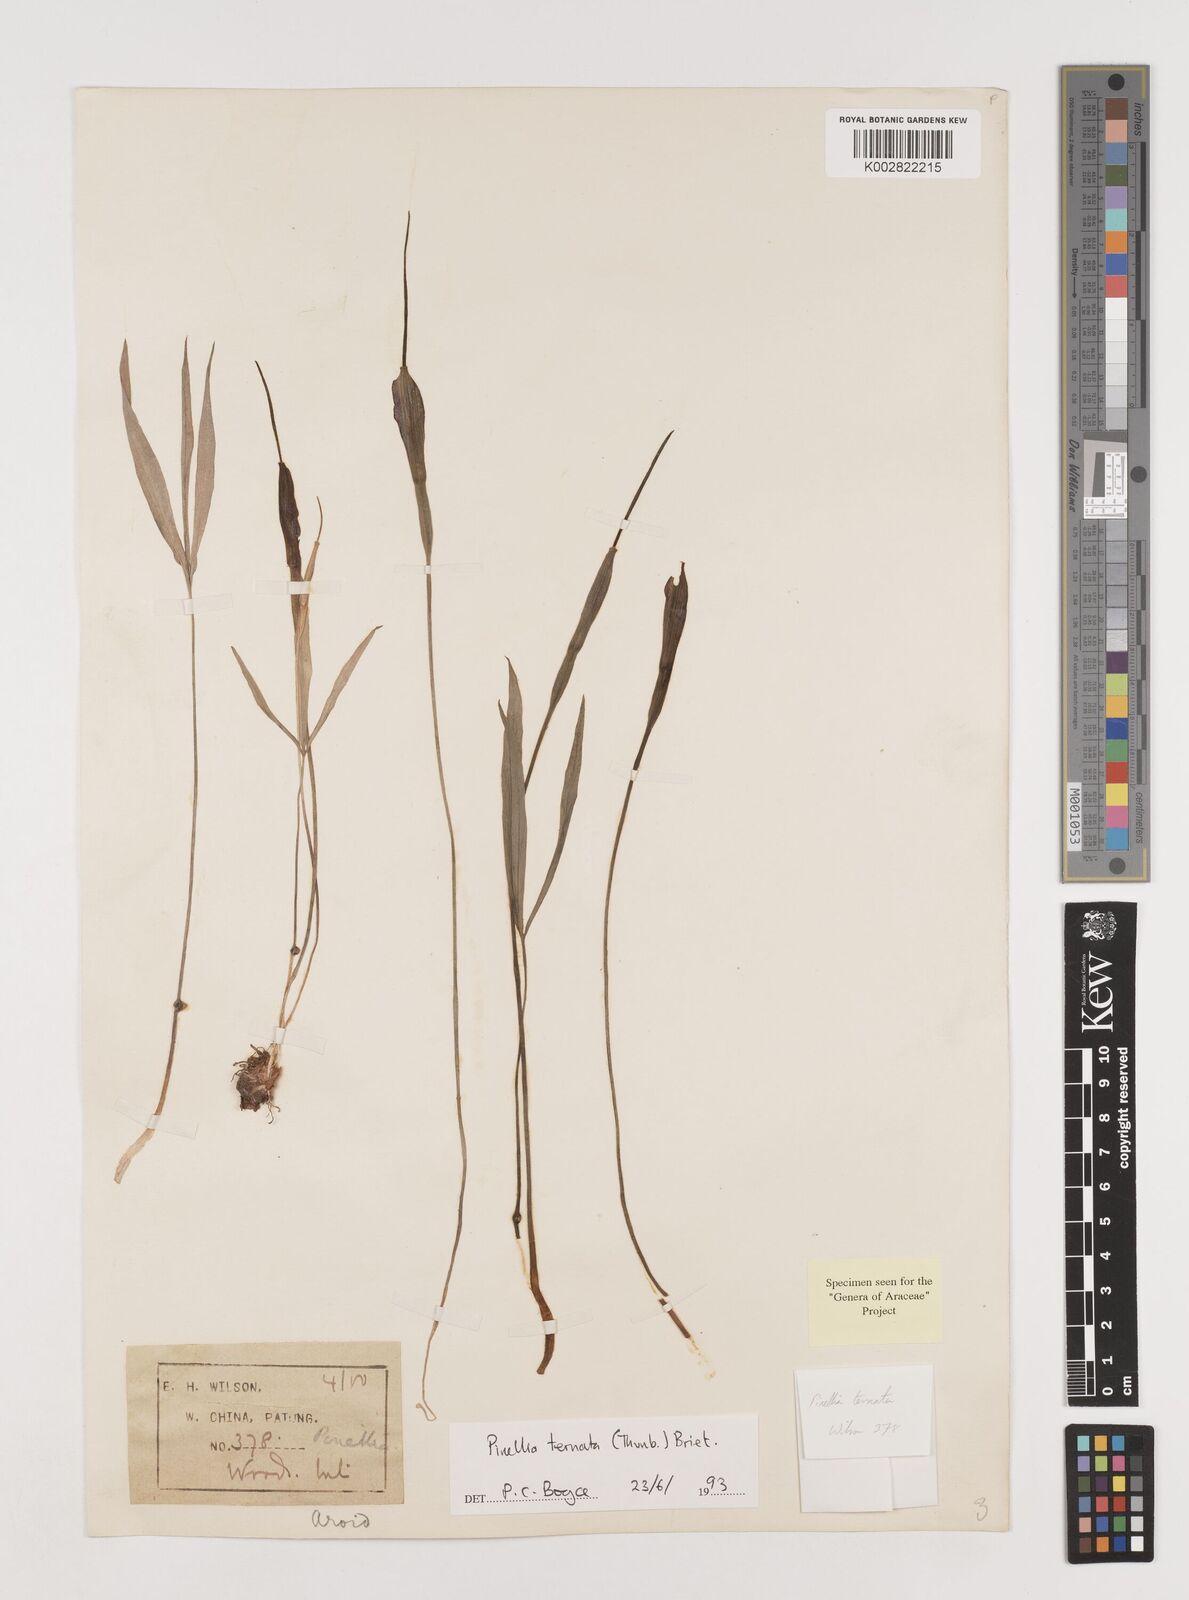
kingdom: Plantae
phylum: Tracheophyta
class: Liliopsida
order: Alismatales
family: Araceae
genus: Pinellia
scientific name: Pinellia ternata
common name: Pinellia
